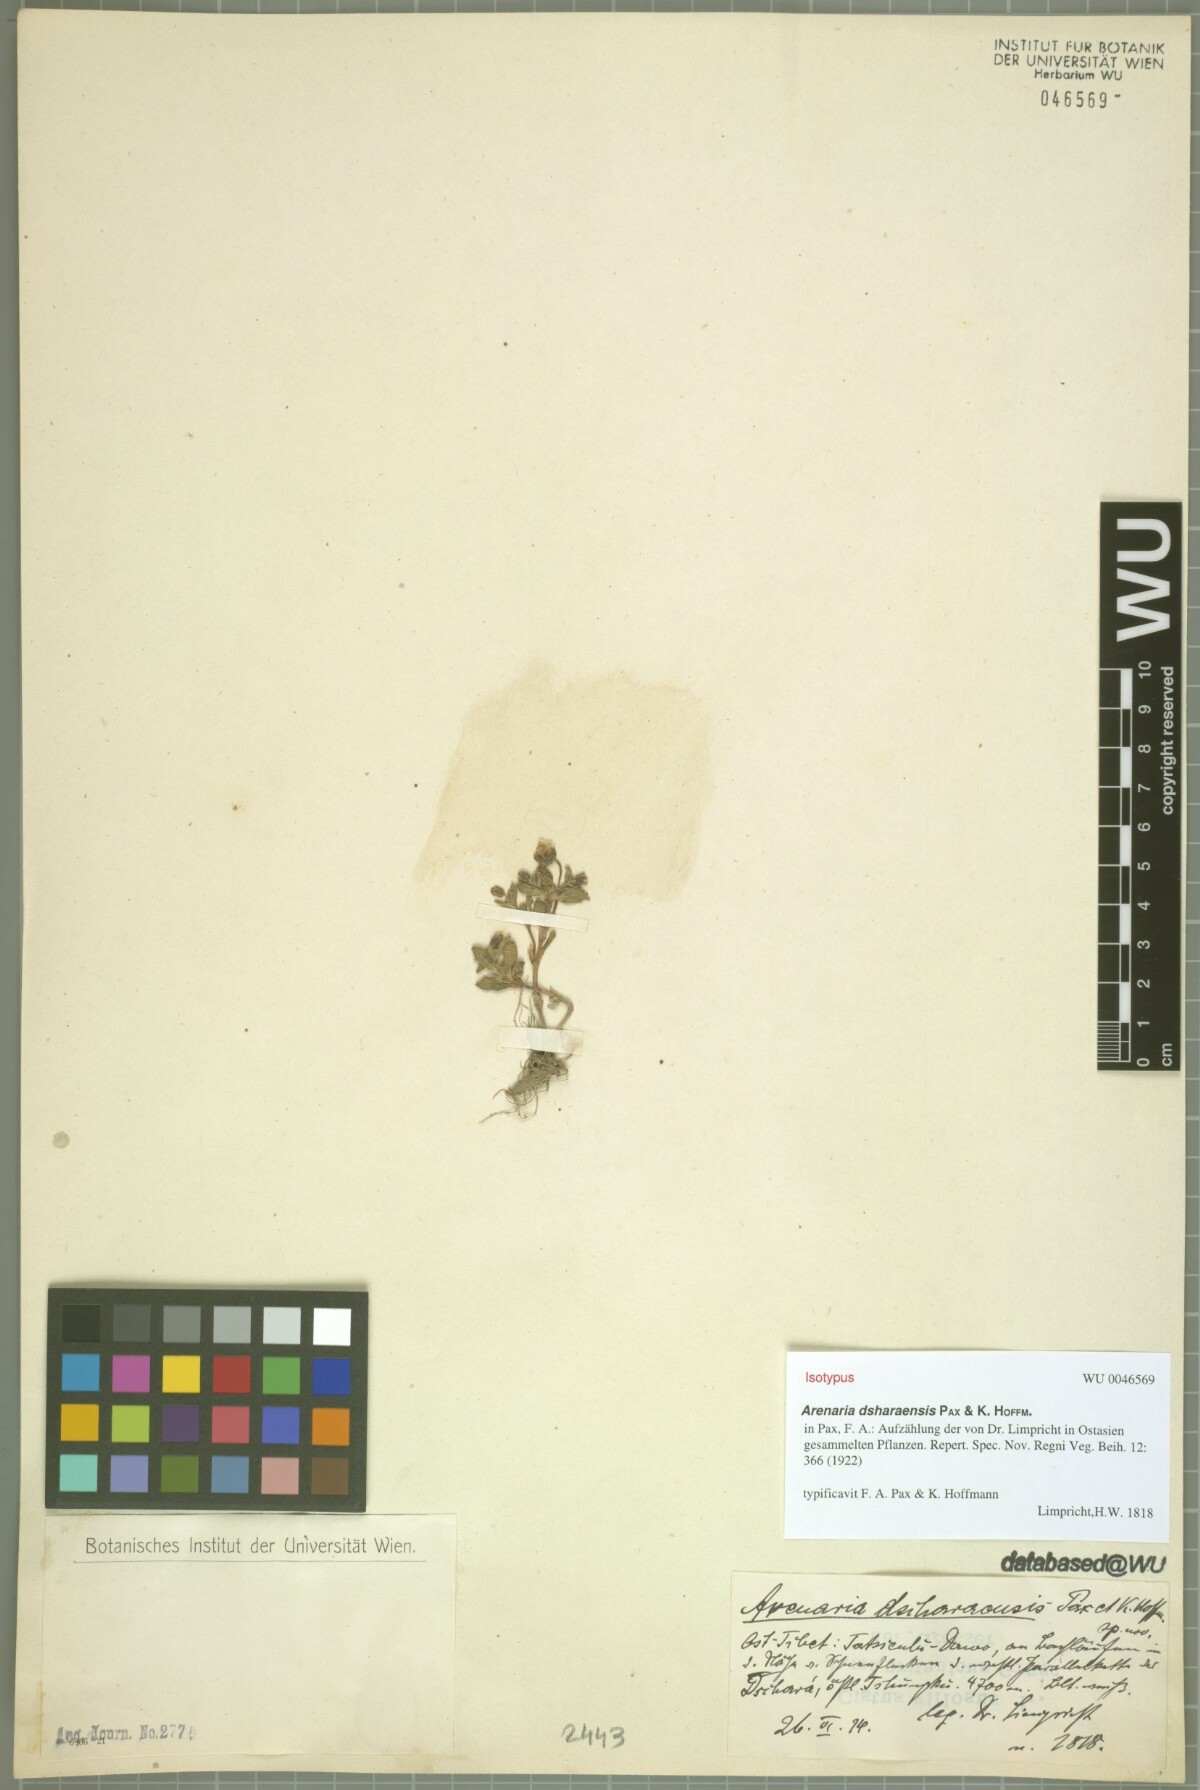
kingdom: Plantae
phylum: Tracheophyta
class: Magnoliopsida
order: Caryophyllales
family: Caryophyllaceae
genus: Odontostemma
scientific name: Odontostemma dsharaense
